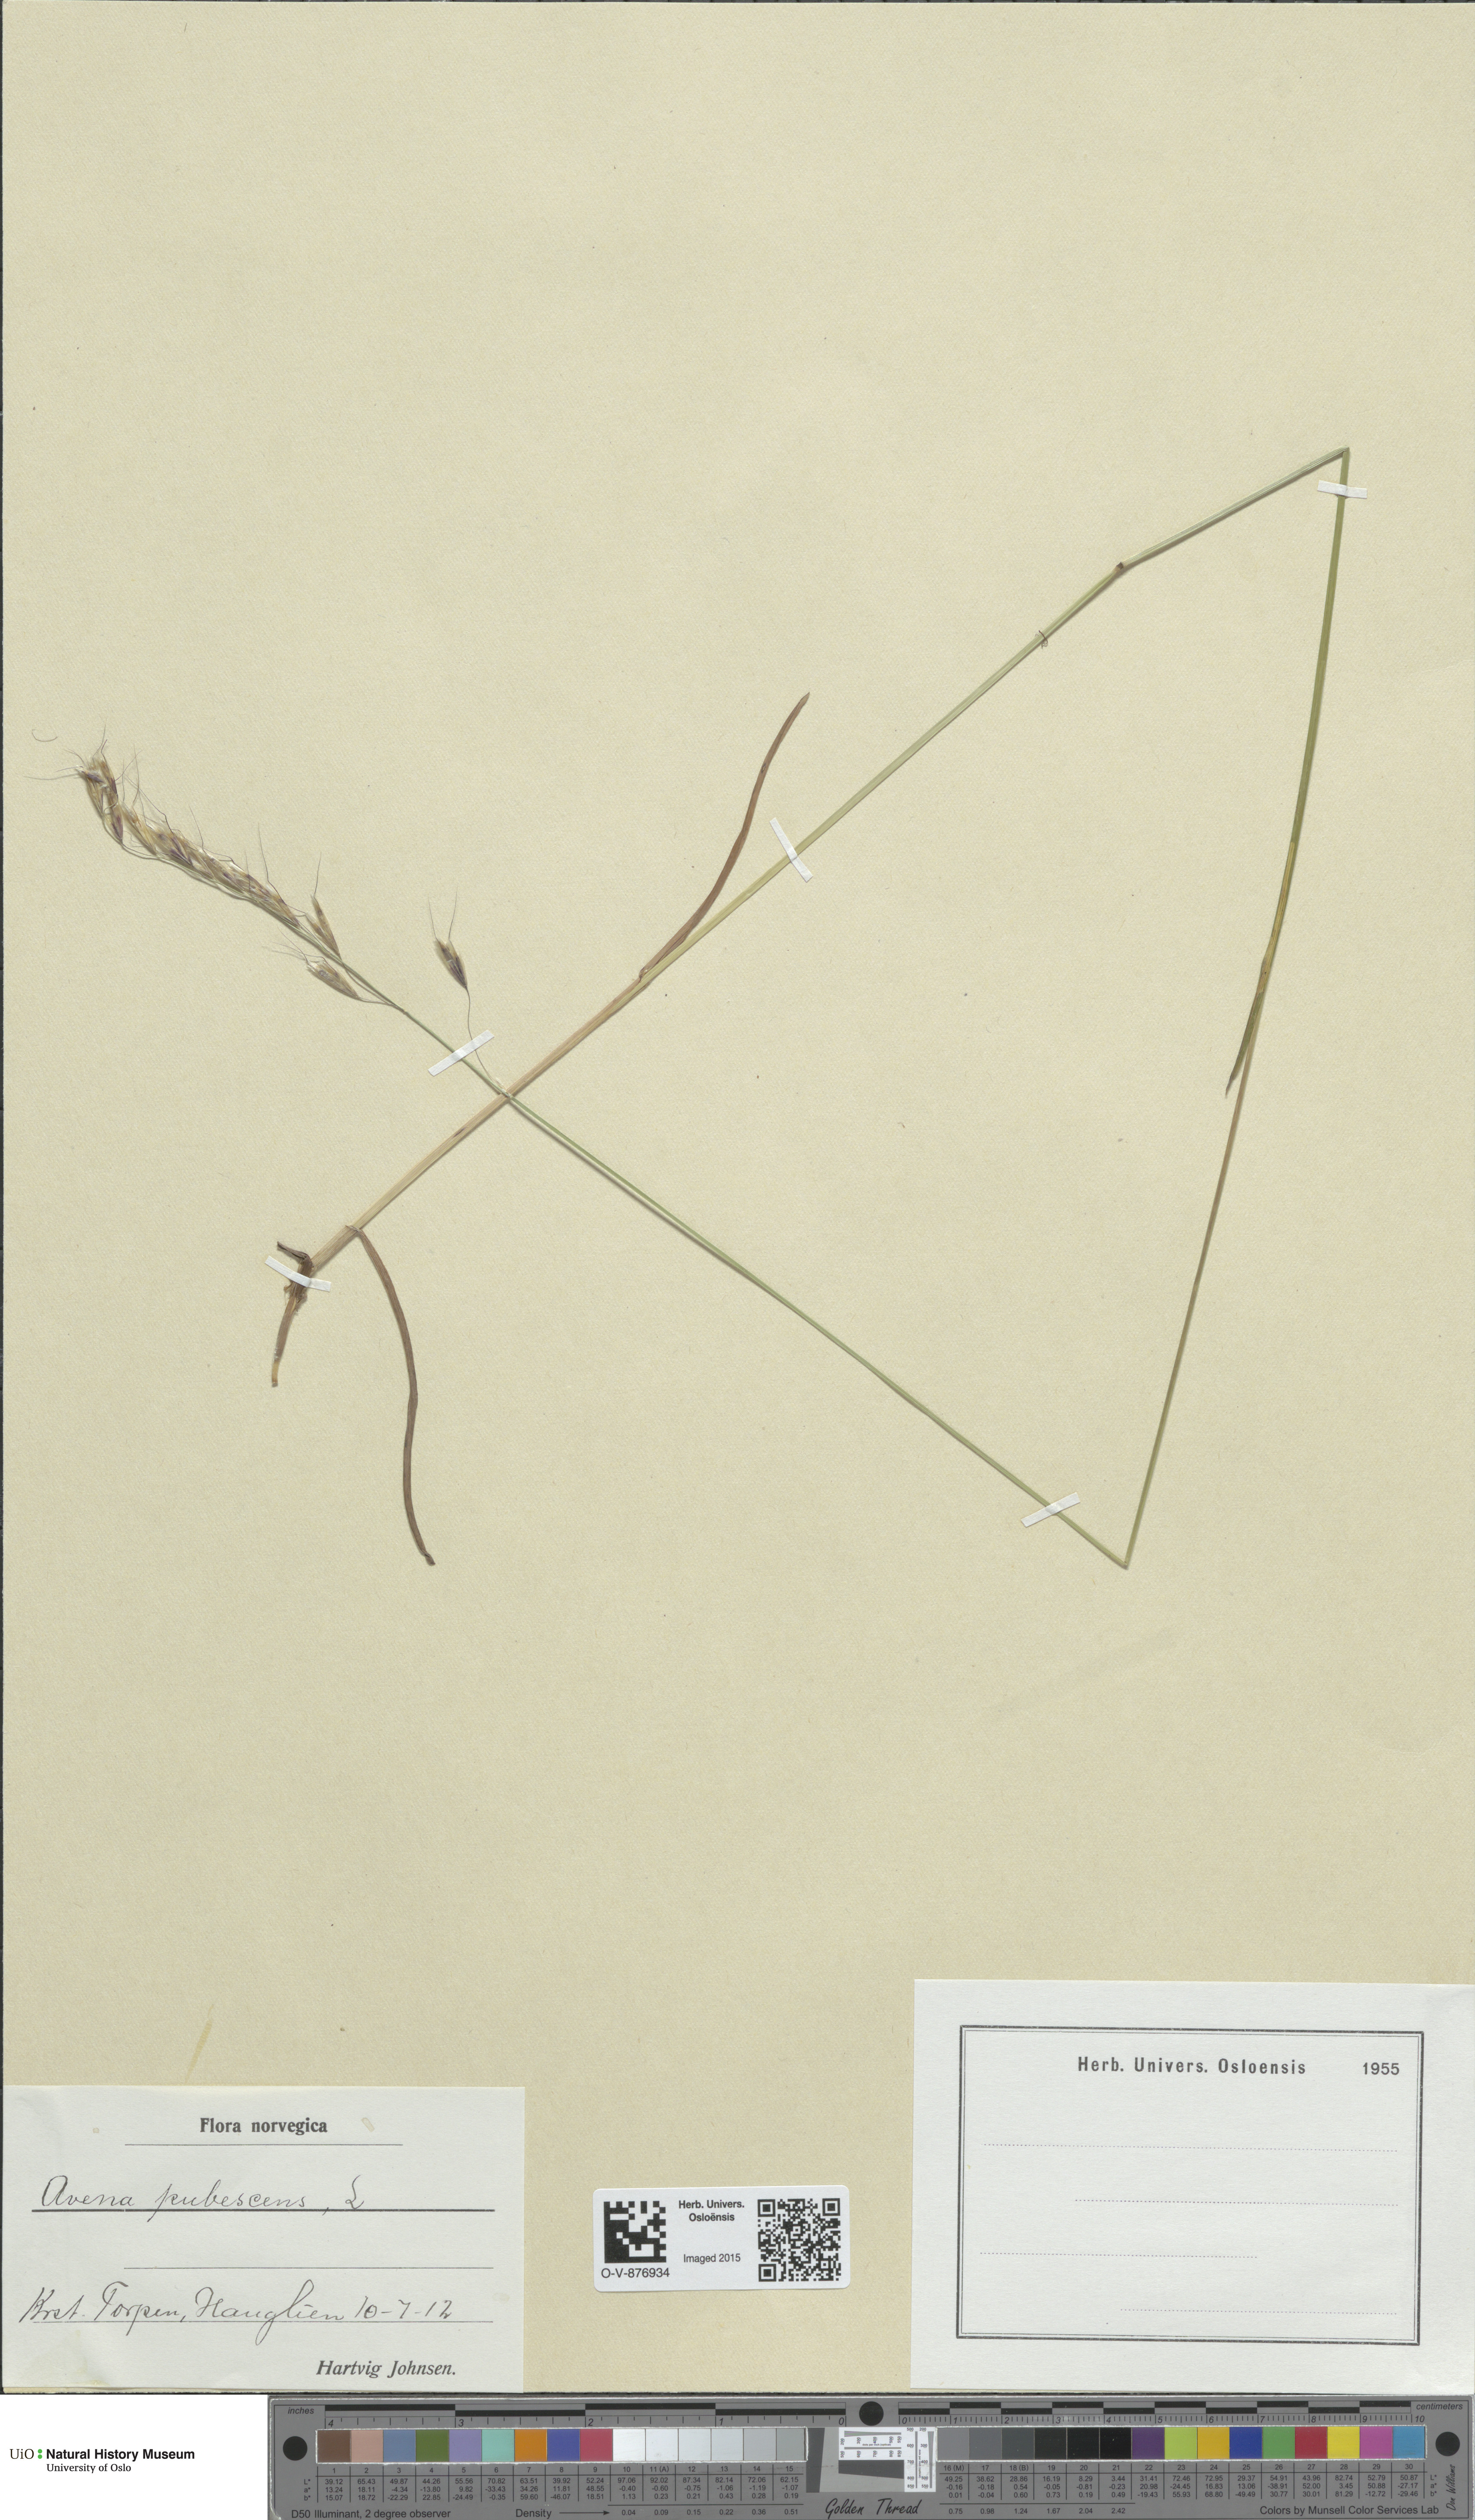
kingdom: Plantae
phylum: Tracheophyta
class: Liliopsida
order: Poales
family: Poaceae
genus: Avenula
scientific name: Avenula pubescens
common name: Downy alpine oatgrass
